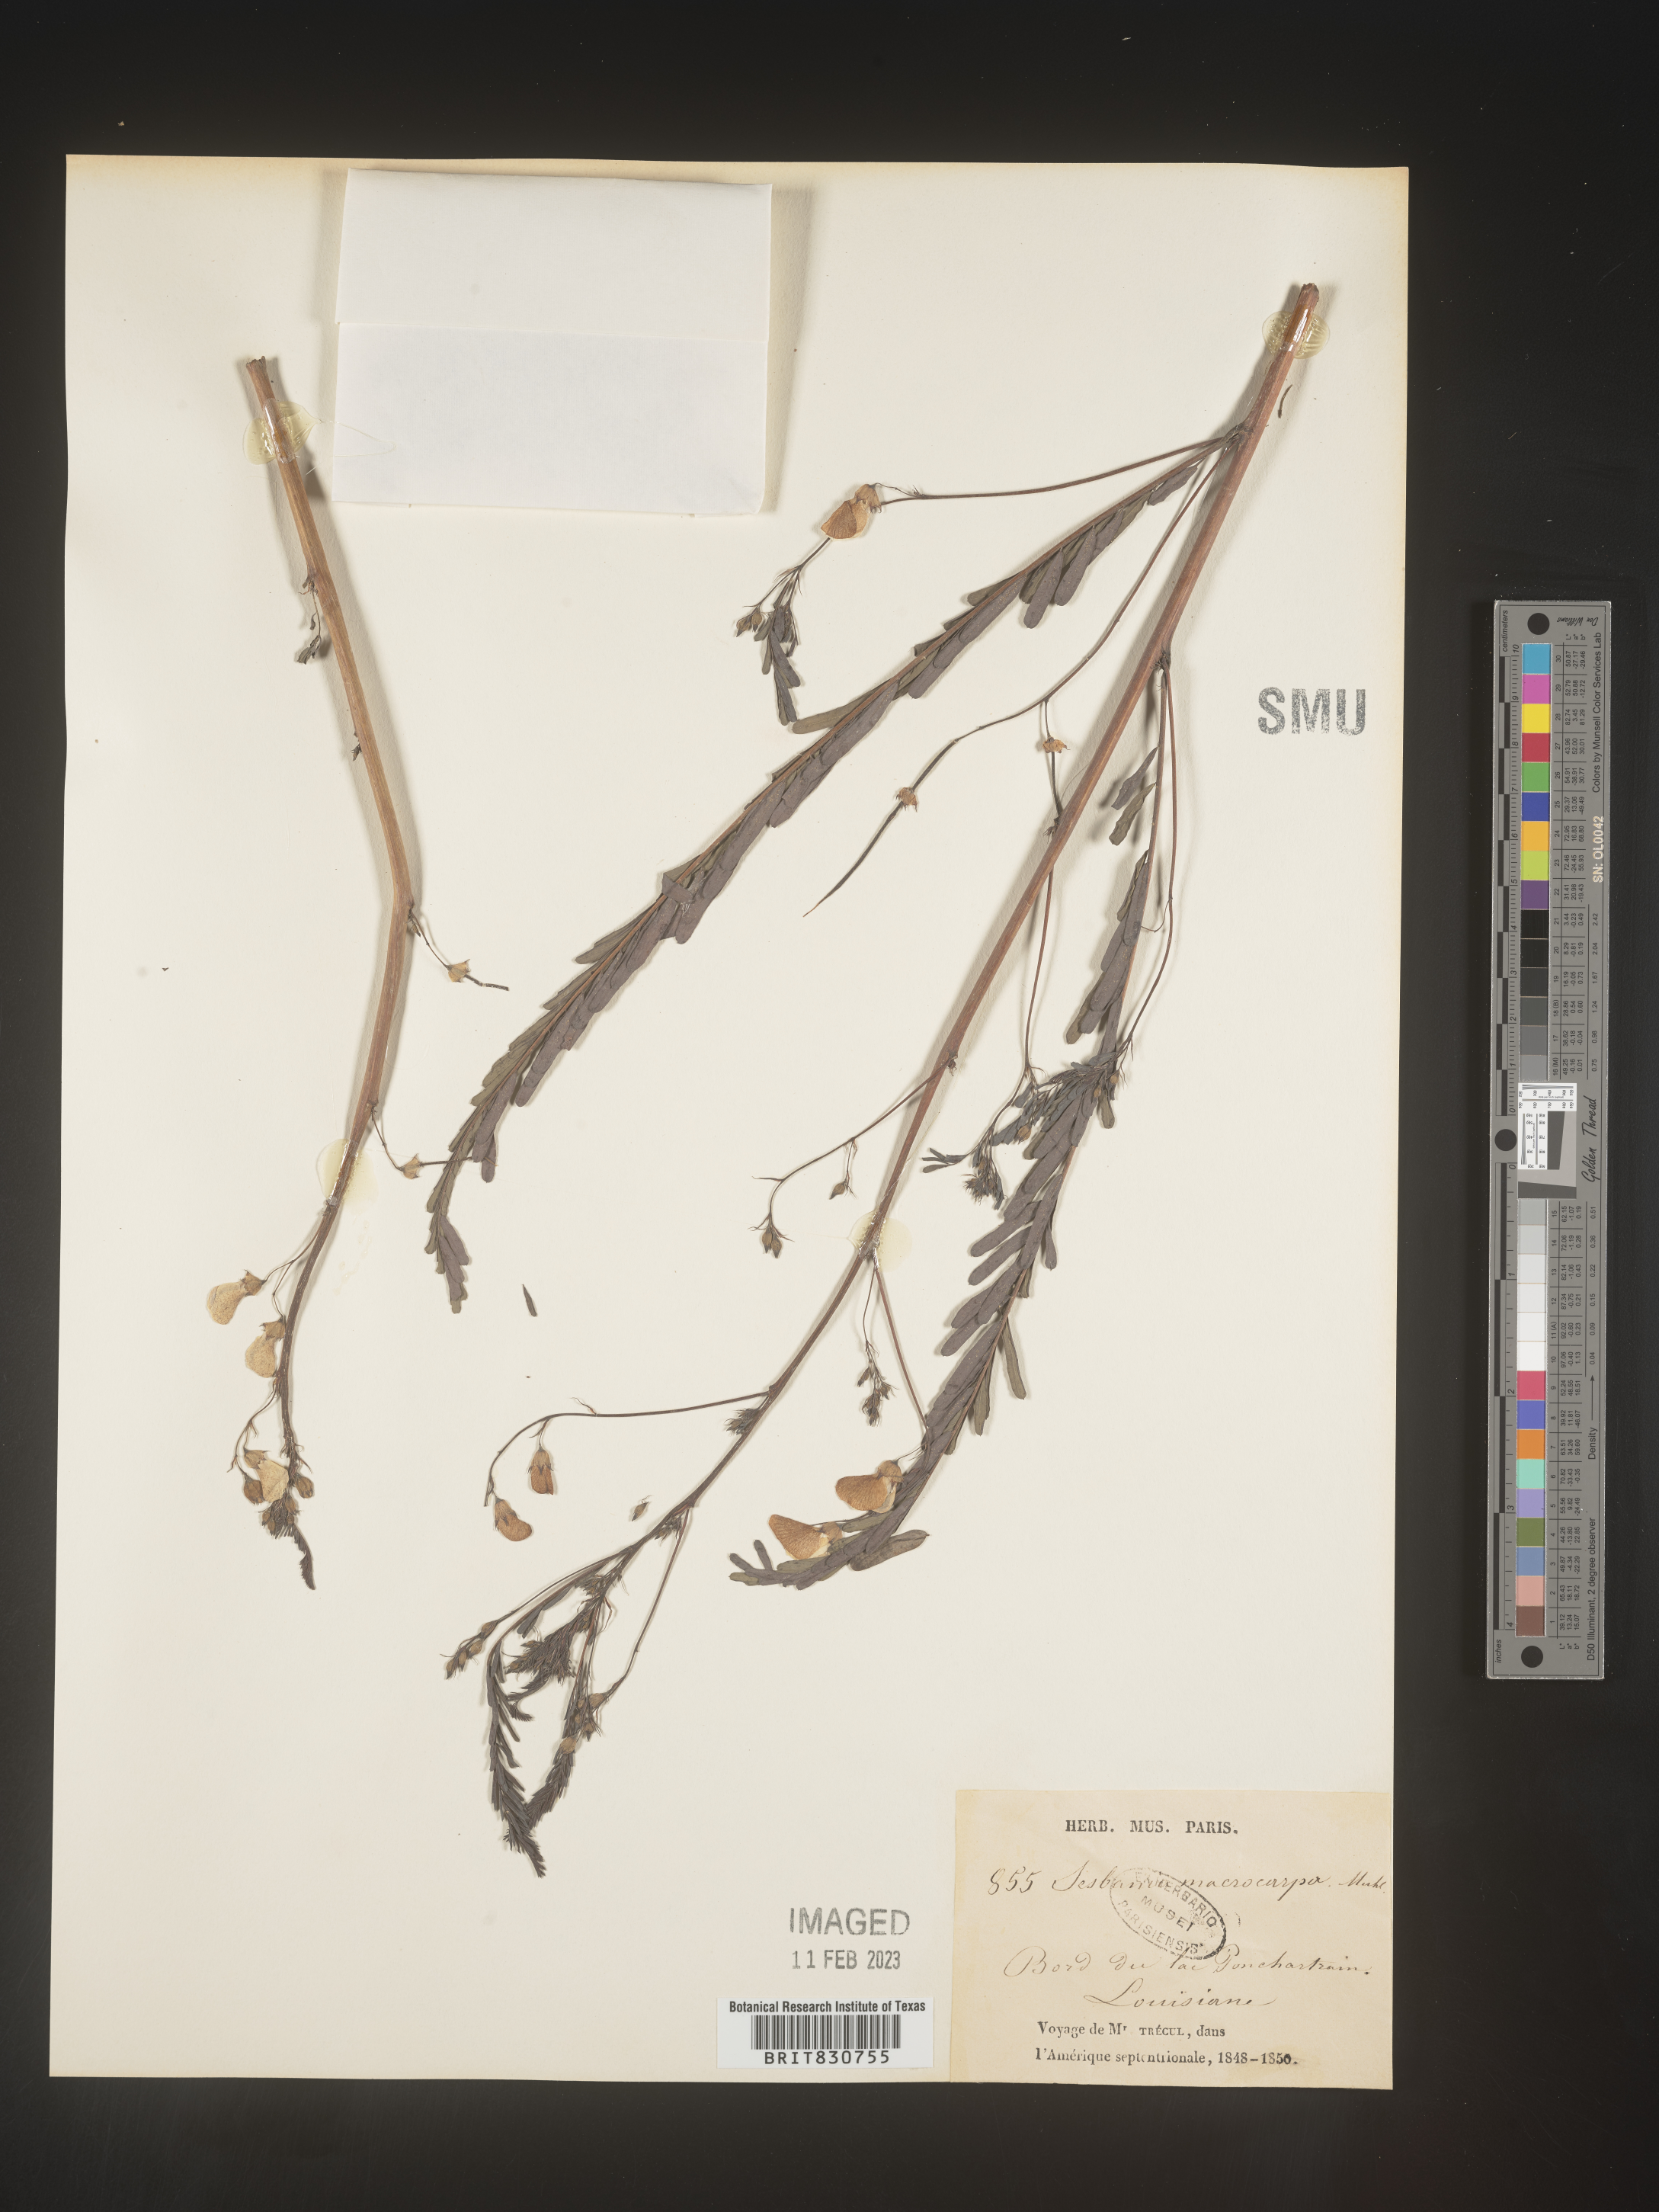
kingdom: Plantae
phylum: Tracheophyta
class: Magnoliopsida
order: Fabales
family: Fabaceae
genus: Sesbania
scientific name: Sesbania vesicaria
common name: Bagpod
